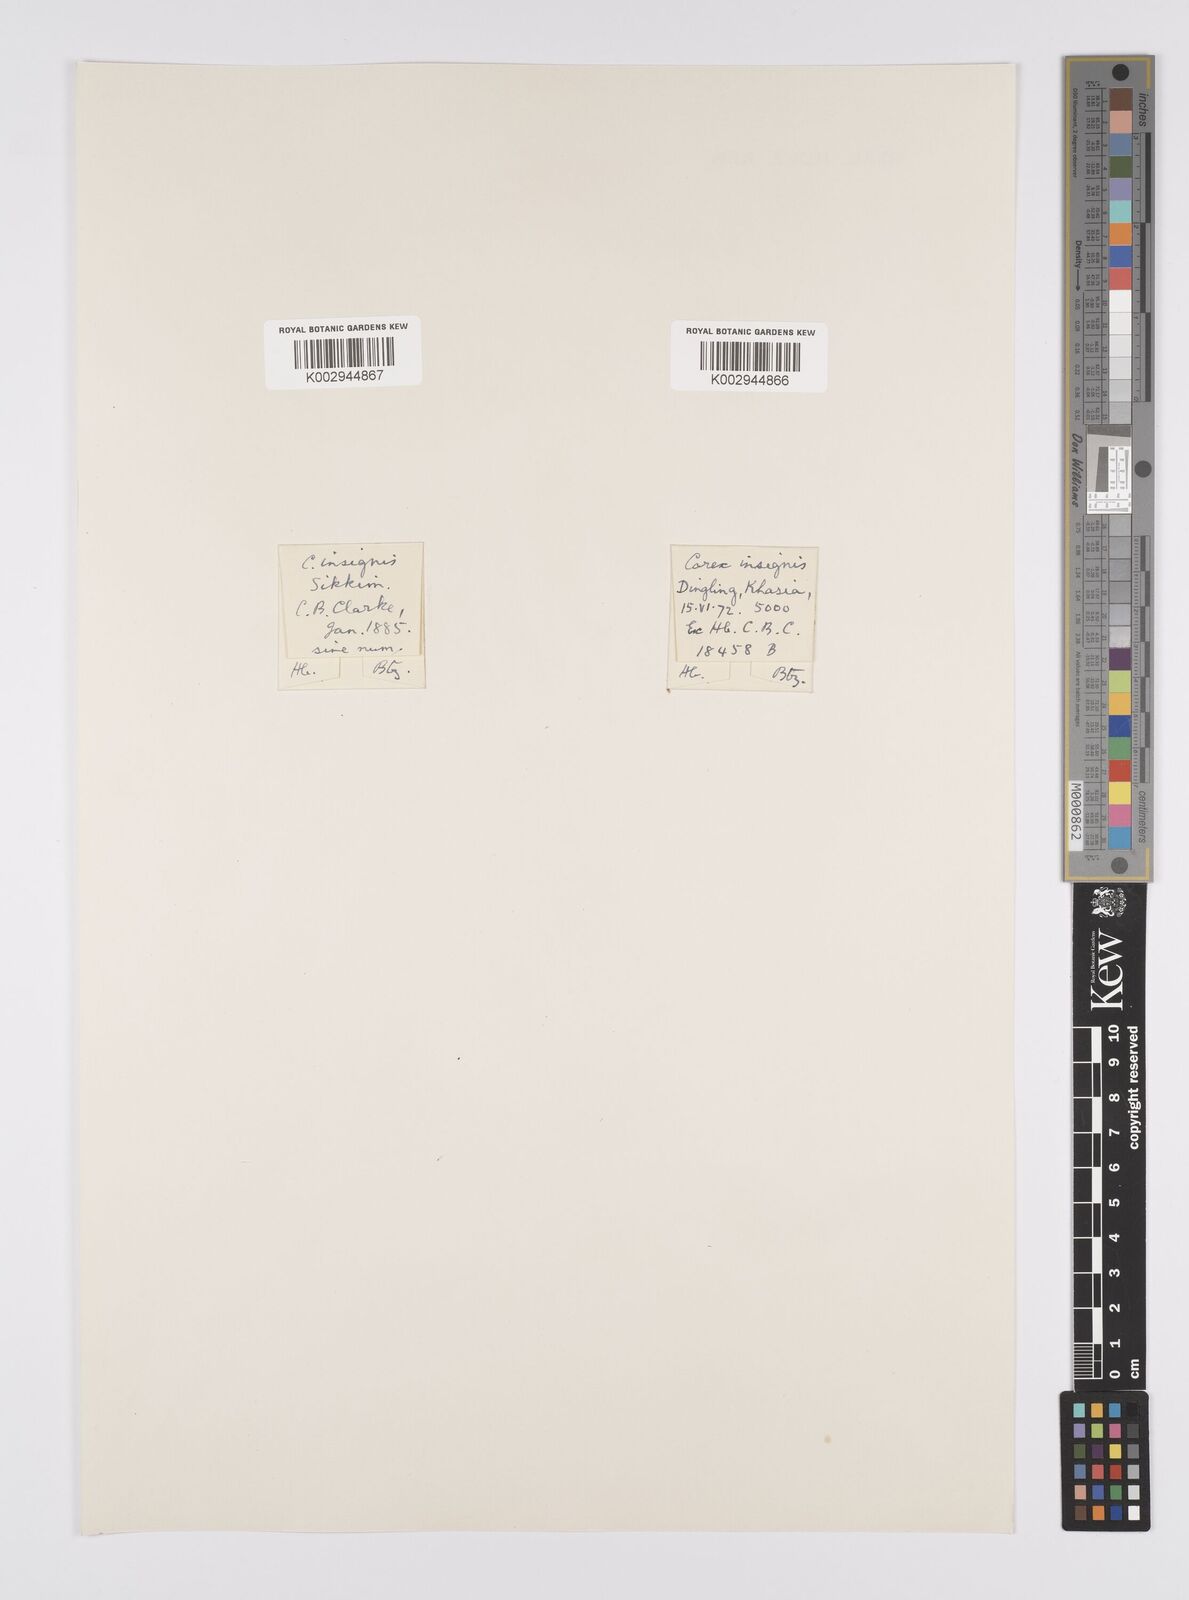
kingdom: Plantae
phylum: Tracheophyta
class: Liliopsida
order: Poales
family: Cyperaceae
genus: Carex
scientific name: Carex insignis
